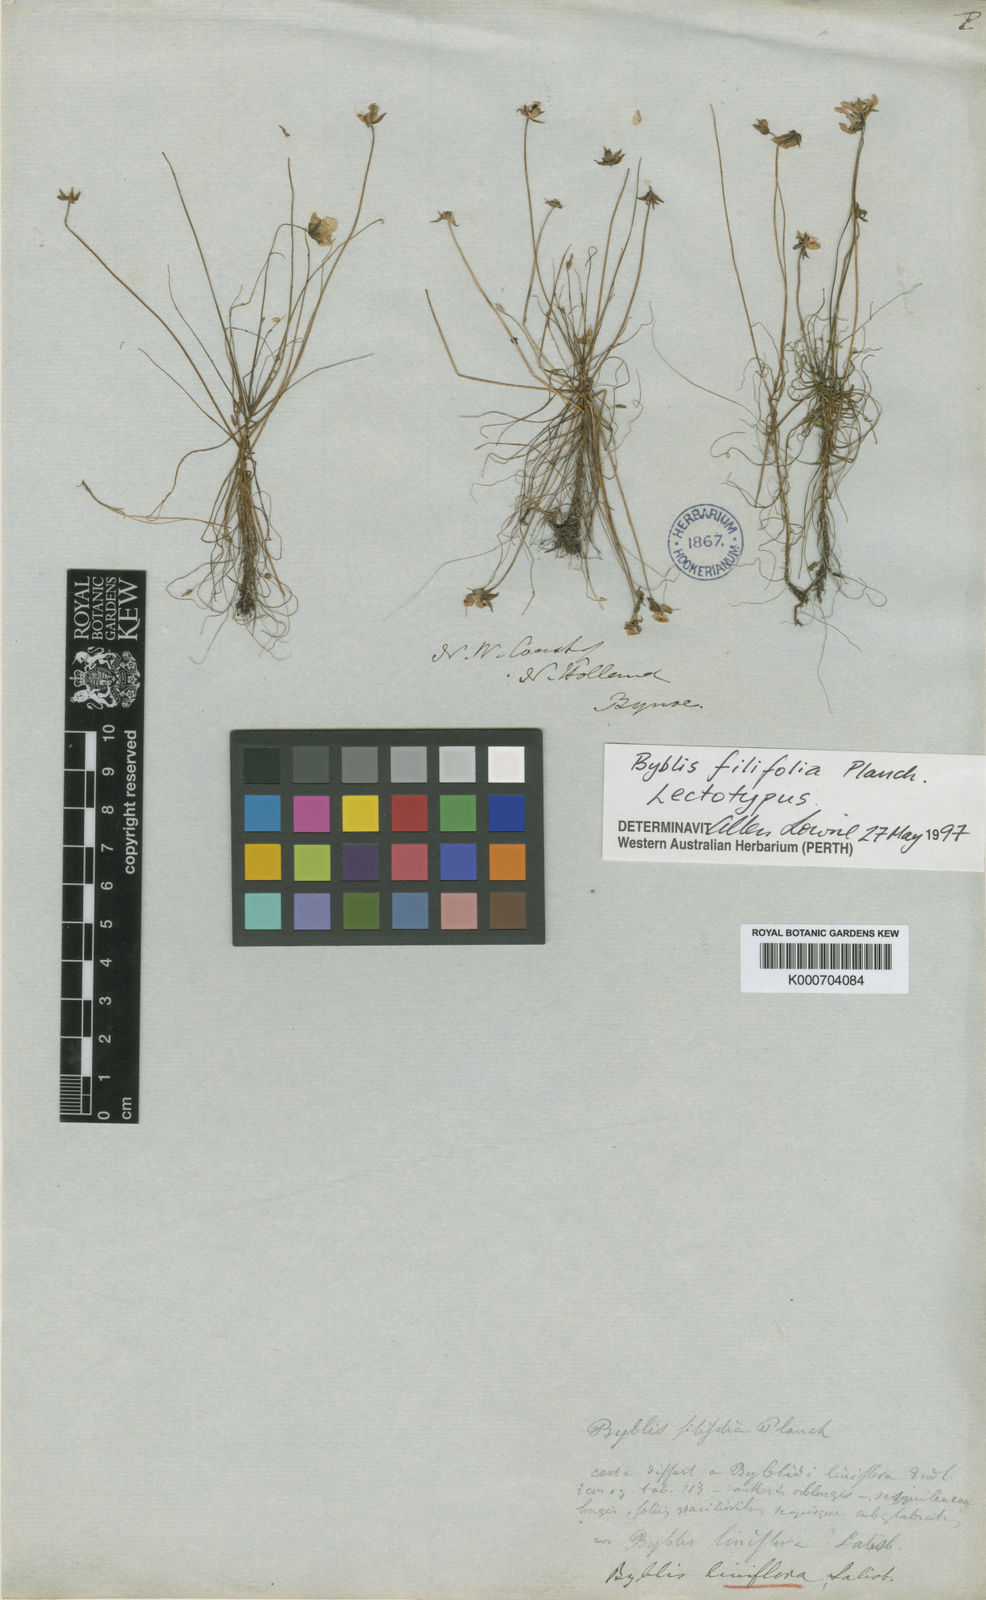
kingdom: Plantae
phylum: Tracheophyta
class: Magnoliopsida
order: Lamiales
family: Byblidaceae
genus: Byblis
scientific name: Byblis liniflora
